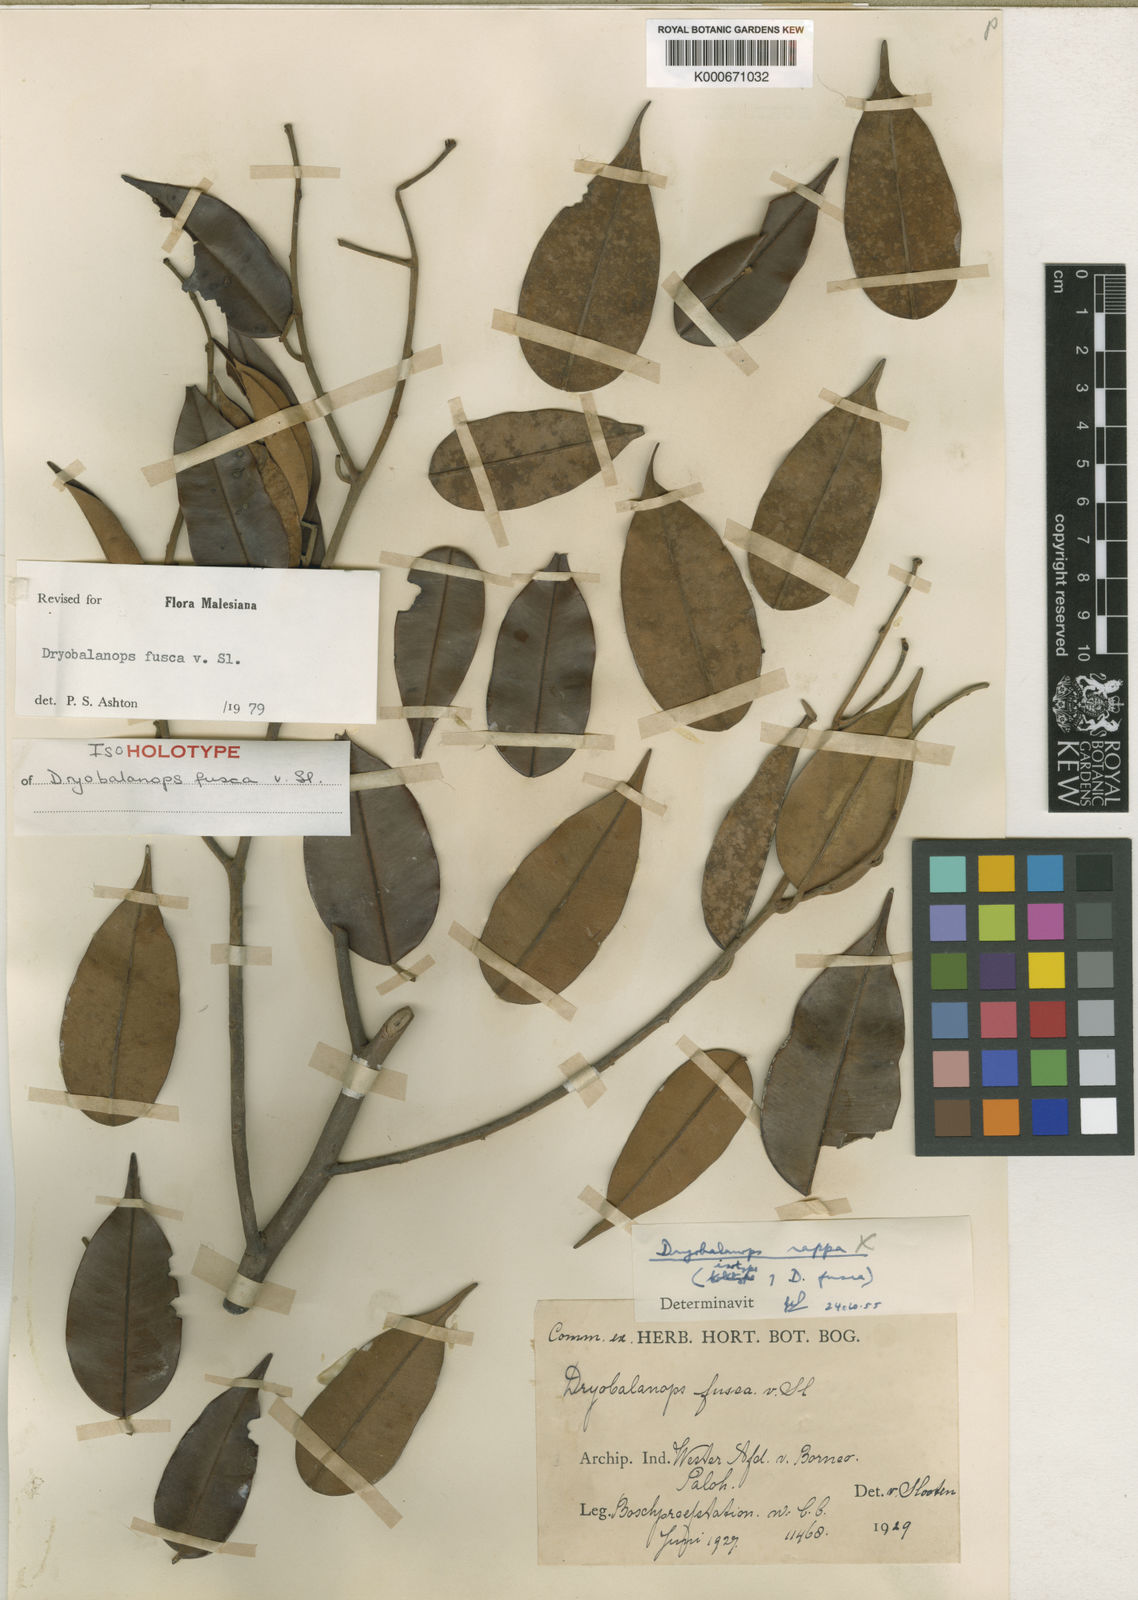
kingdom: Plantae
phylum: Tracheophyta
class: Magnoliopsida
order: Malvales
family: Dipterocarpaceae
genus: Dryobalanops
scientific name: Dryobalanops fusca
